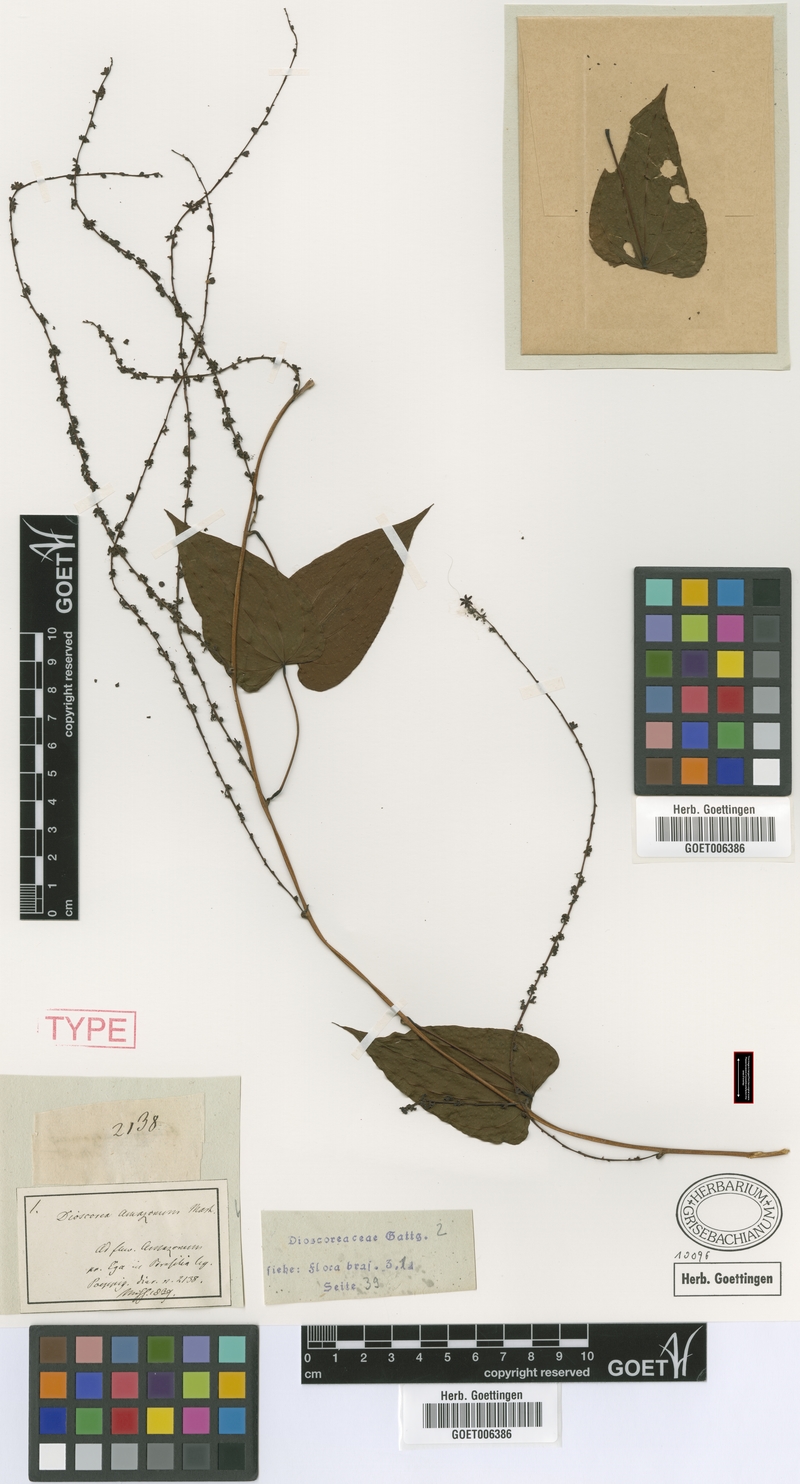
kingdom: Plantae
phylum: Tracheophyta
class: Liliopsida
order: Dioscoreales
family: Dioscoreaceae
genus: Dioscorea
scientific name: Dioscorea amazonum
